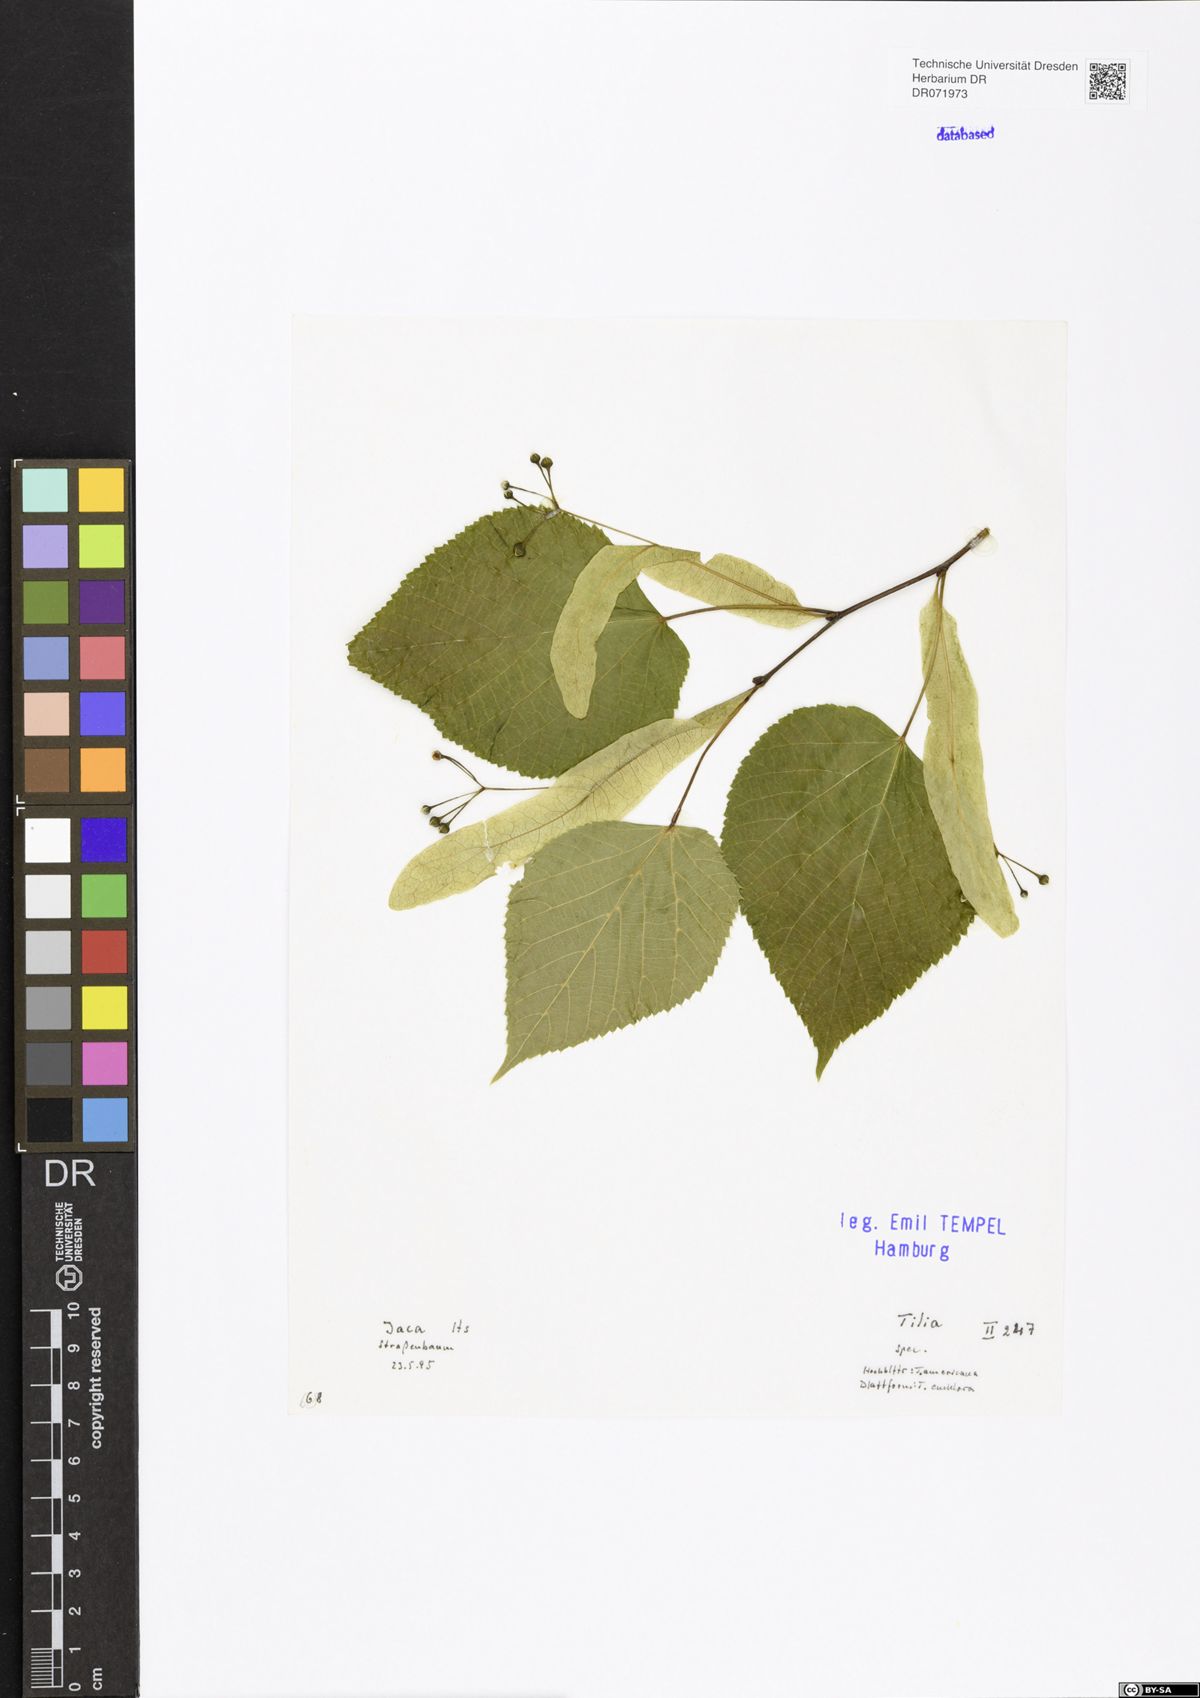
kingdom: Plantae
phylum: Tracheophyta
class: Magnoliopsida
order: Malvales
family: Malvaceae
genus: Tilia
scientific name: Tilia
